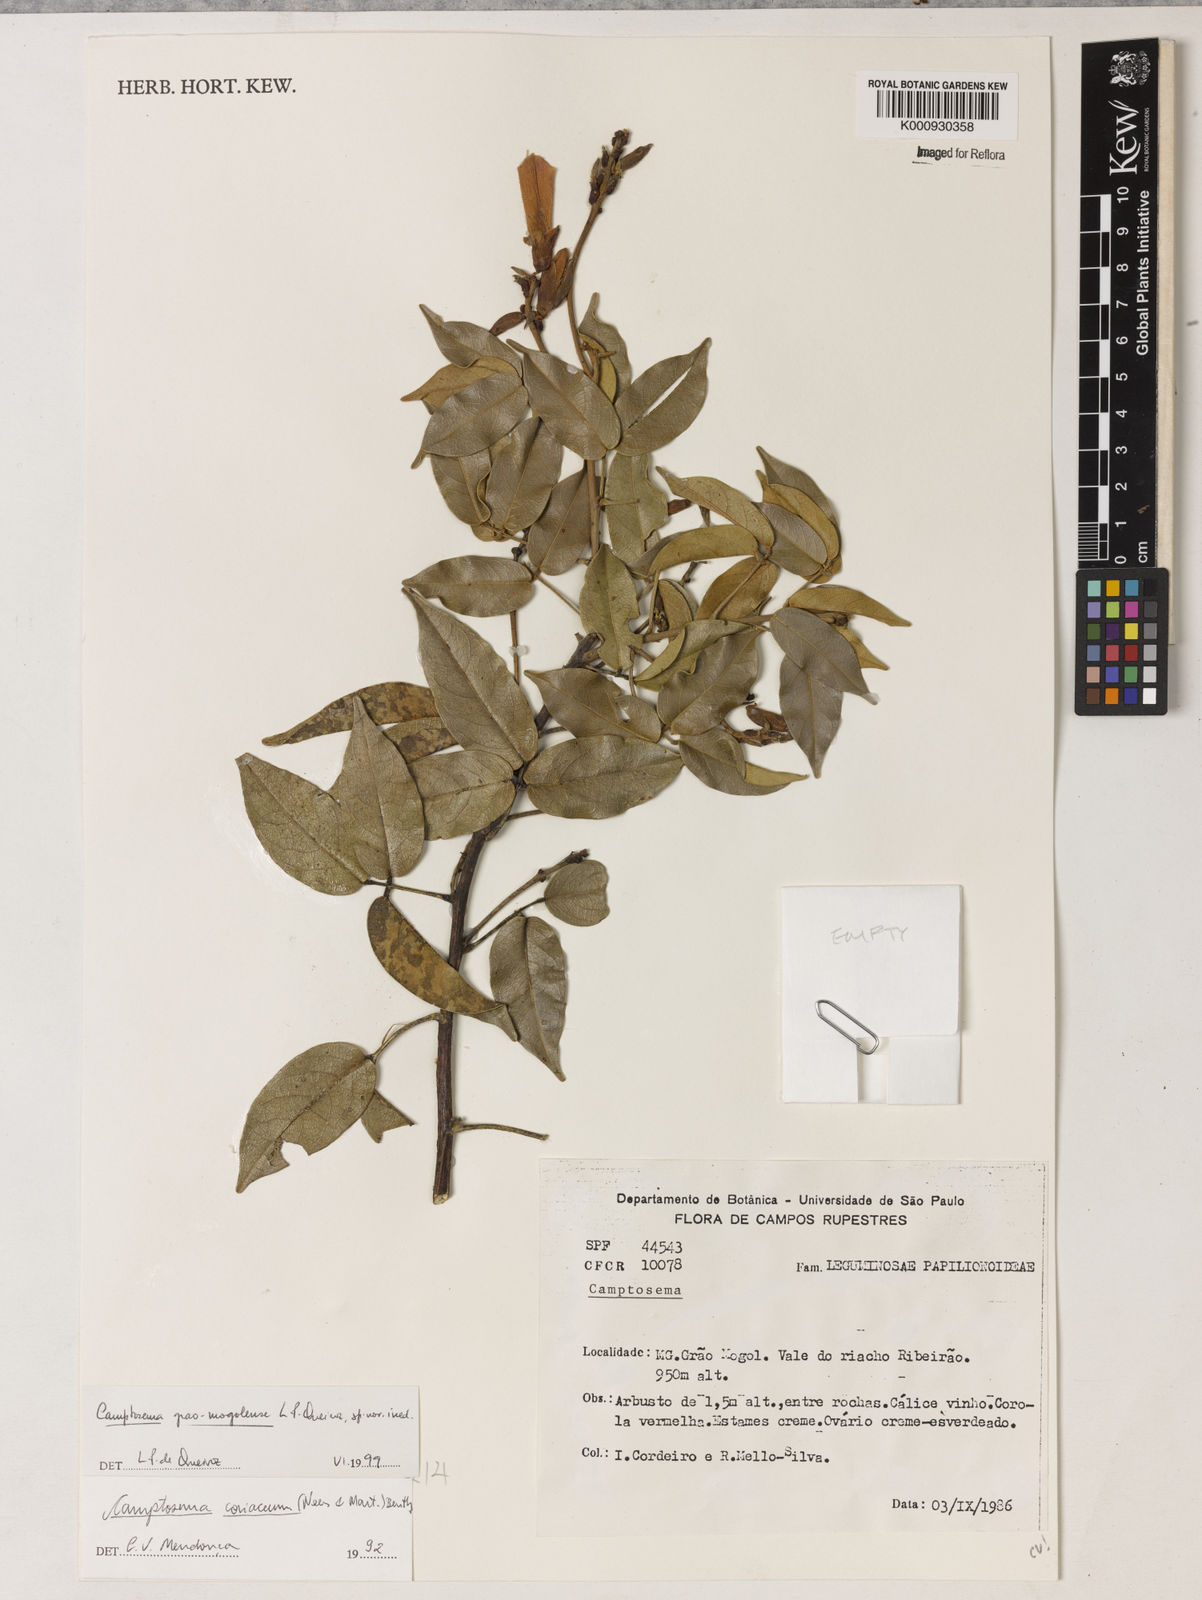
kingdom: Plantae
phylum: Tracheophyta
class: Magnoliopsida
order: Fabales
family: Fabaceae
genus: Camptosema
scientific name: Camptosema
